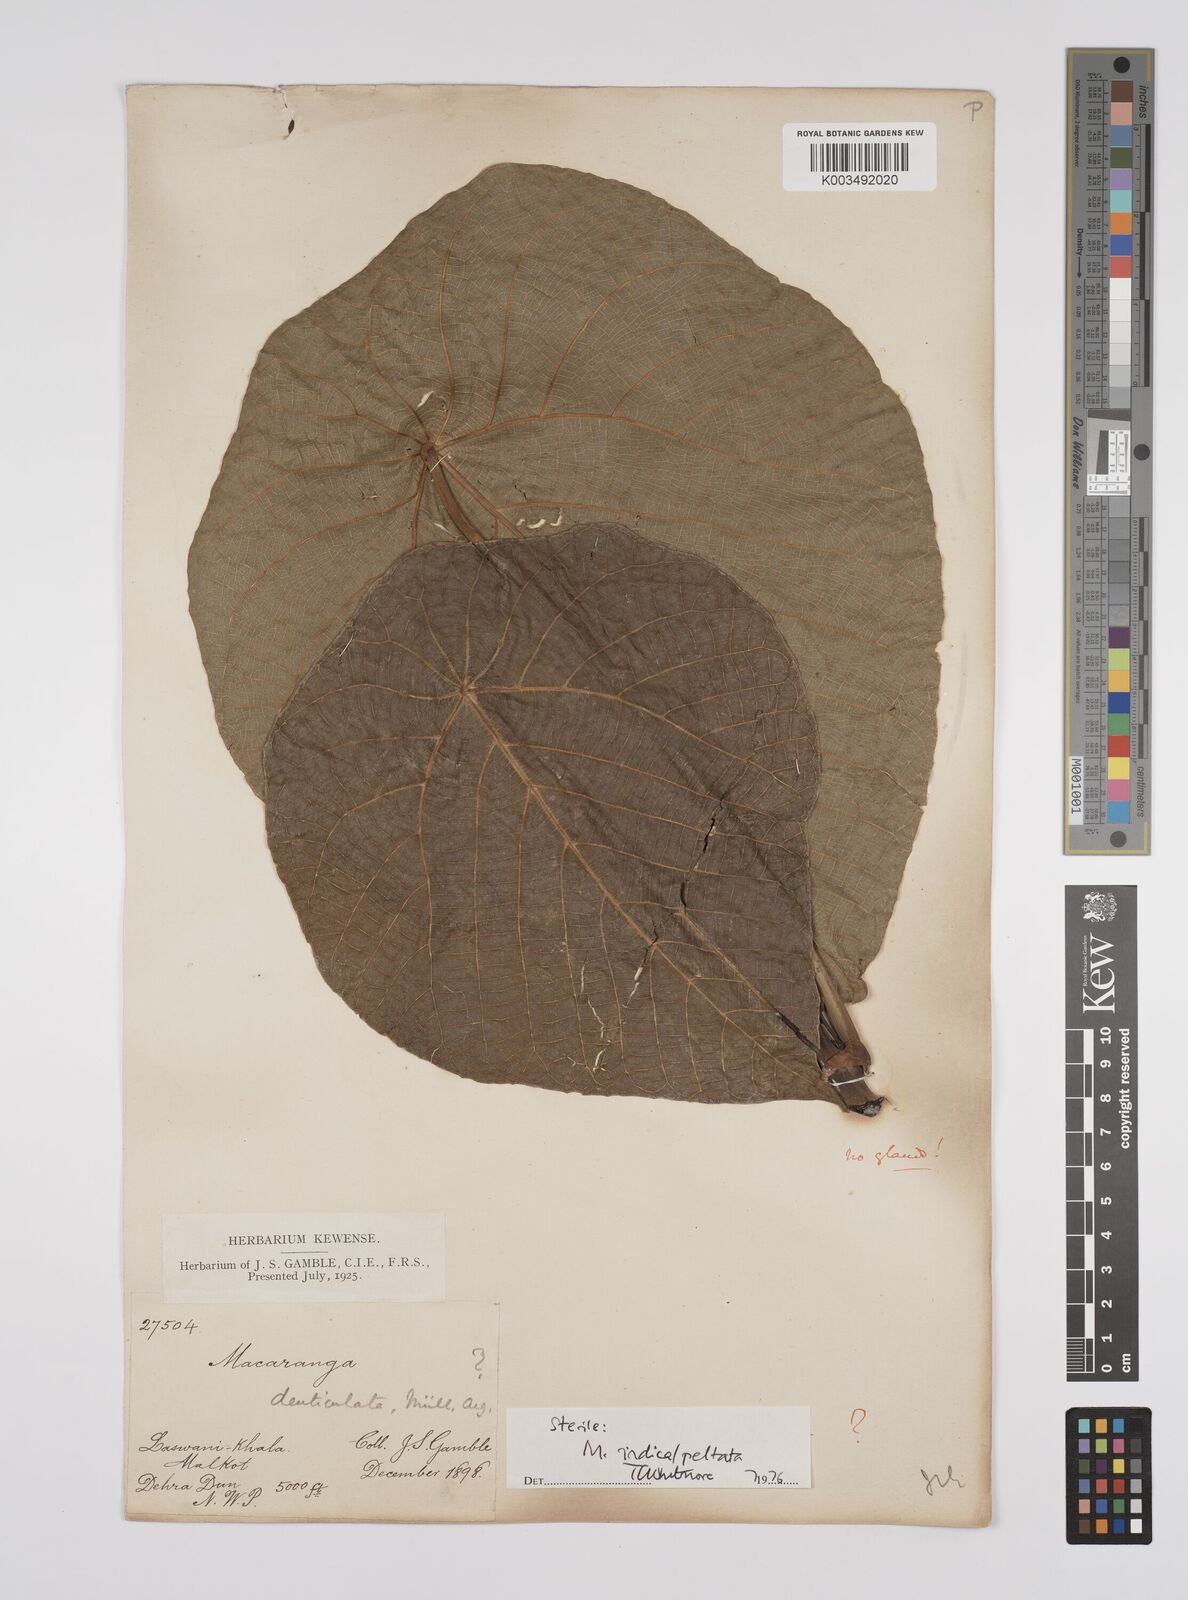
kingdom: Plantae
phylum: Tracheophyta
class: Magnoliopsida
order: Malpighiales
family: Euphorbiaceae
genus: Macaranga
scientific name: Macaranga indica
